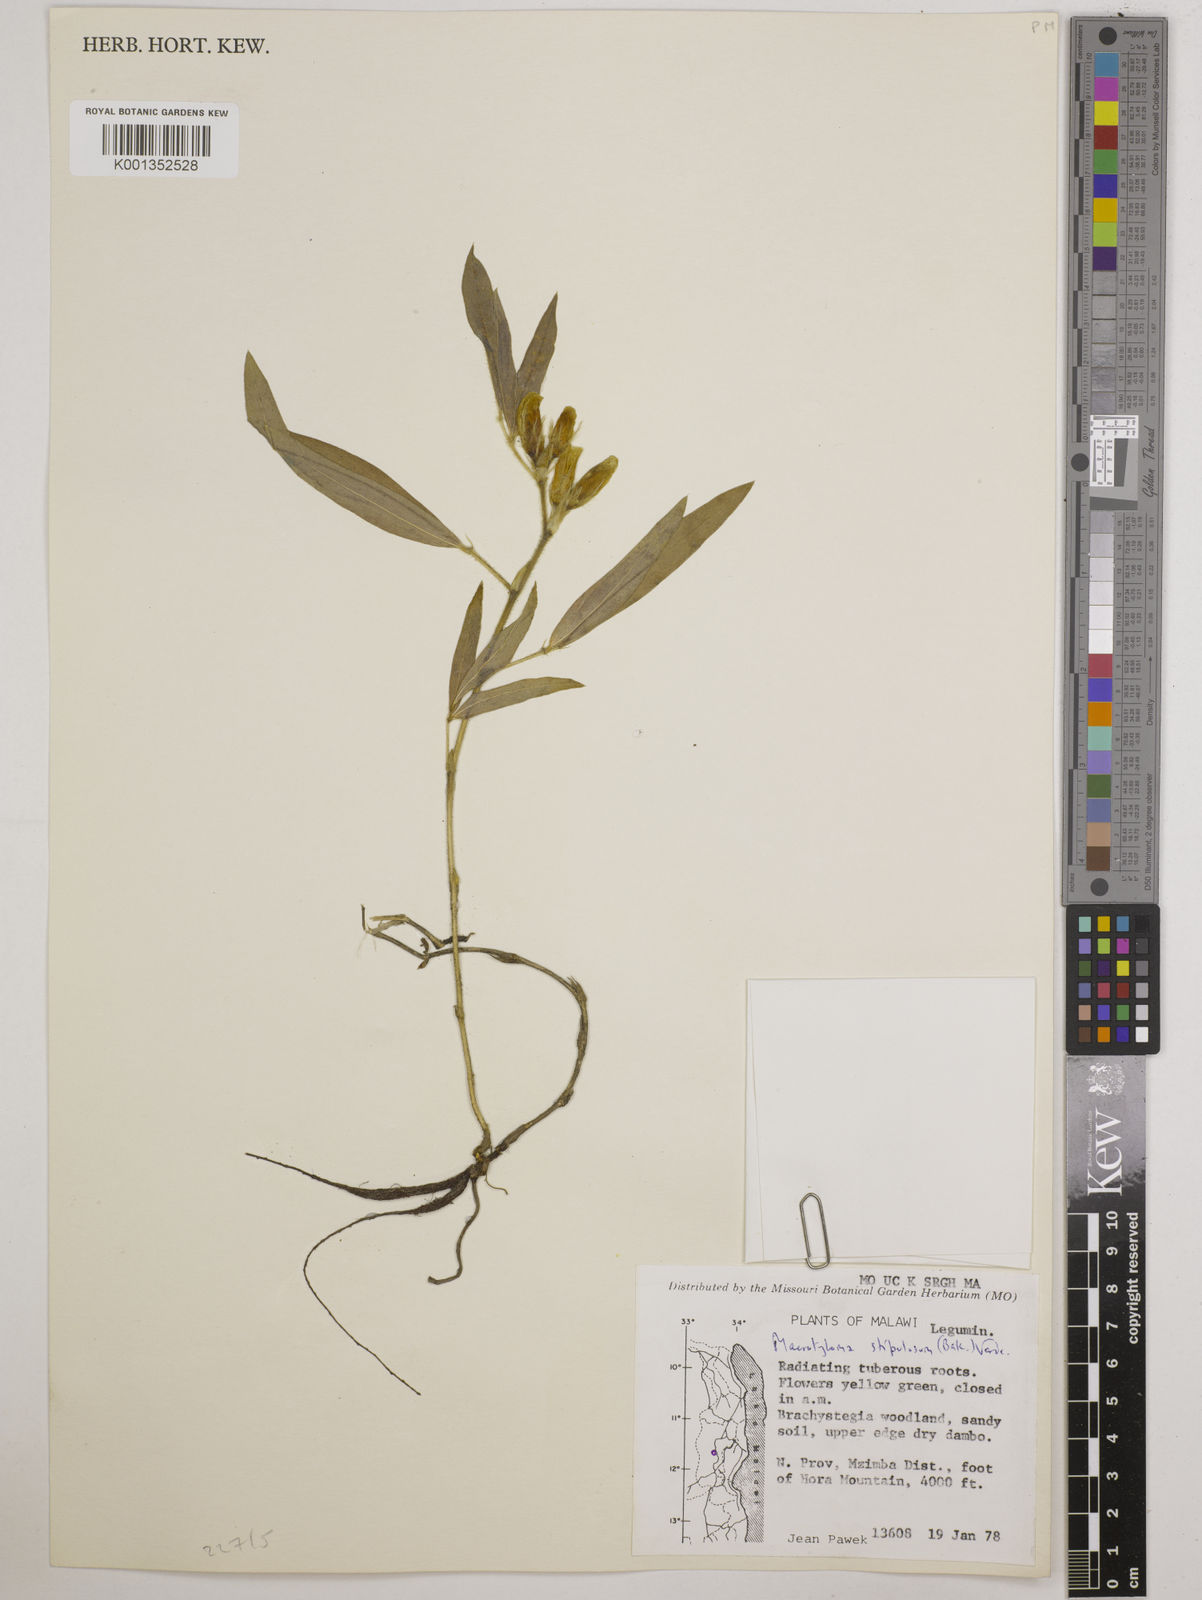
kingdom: Plantae
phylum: Tracheophyta
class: Magnoliopsida
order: Fabales
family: Fabaceae
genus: Macrotyloma
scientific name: Macrotyloma stipulosum
